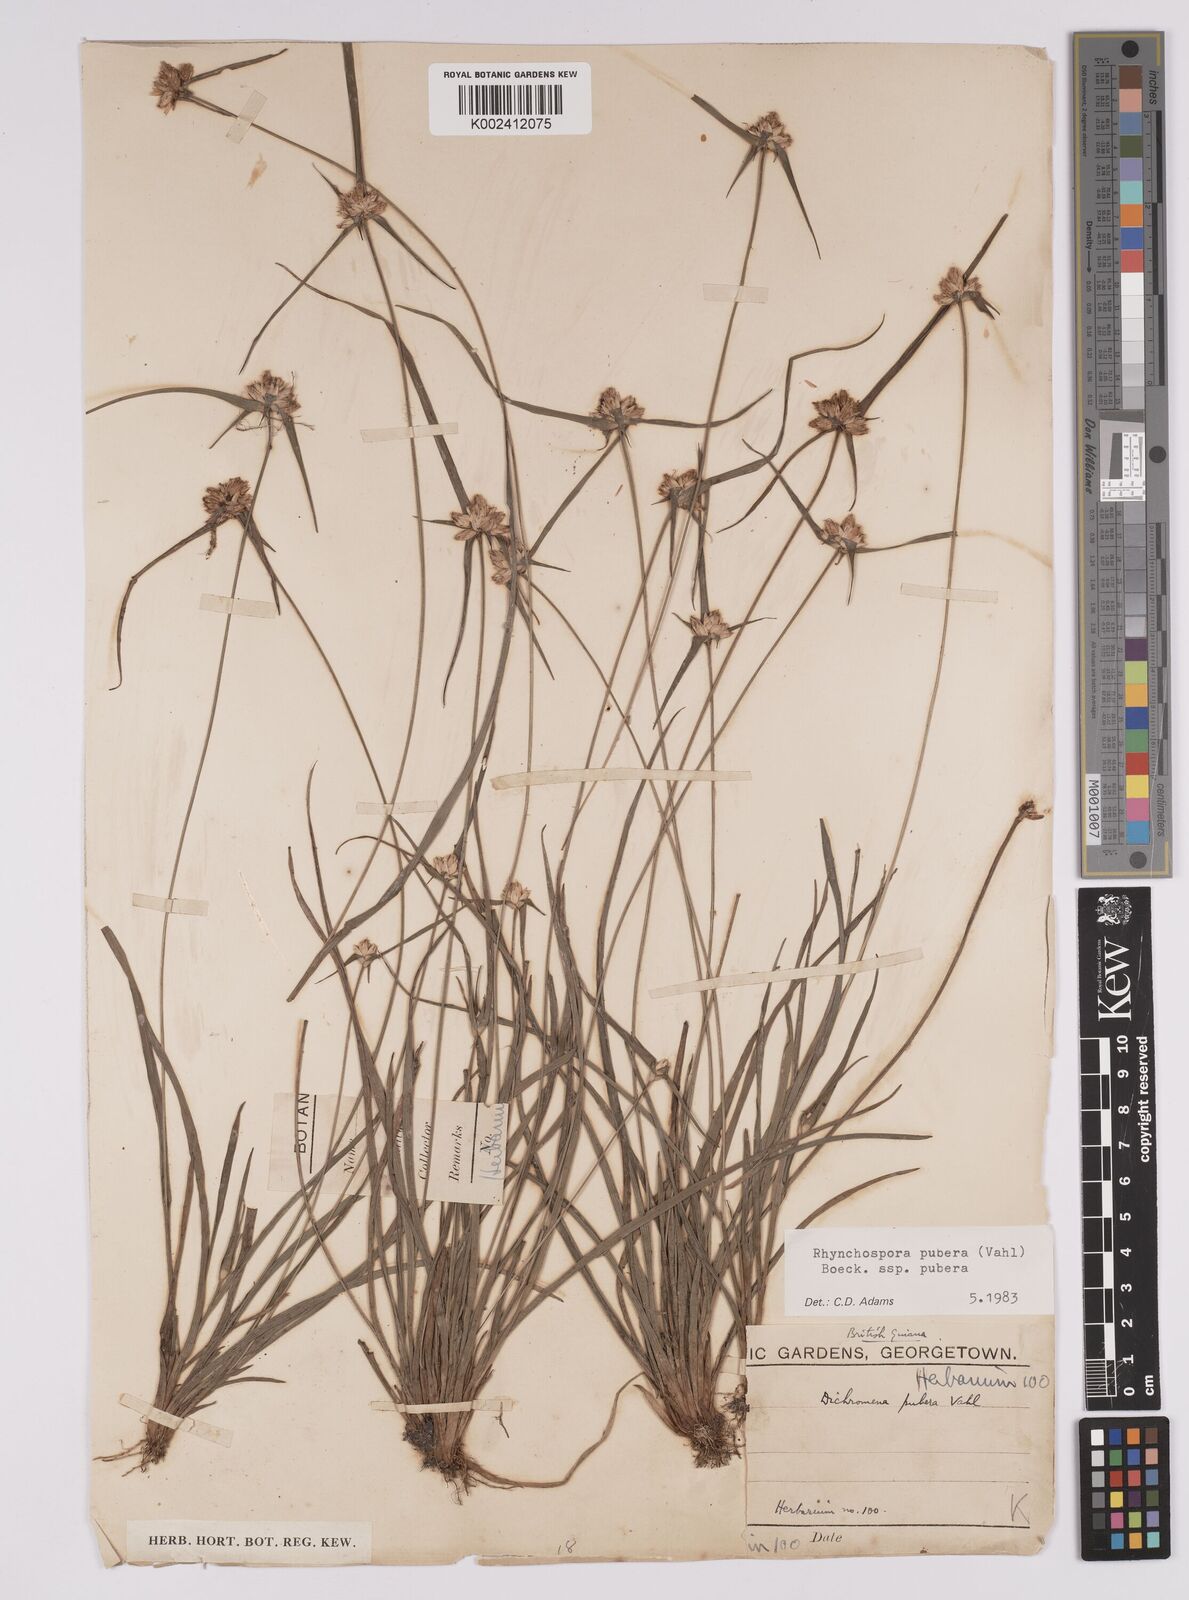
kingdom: Plantae
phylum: Tracheophyta
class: Liliopsida
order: Poales
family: Cyperaceae
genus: Rhynchospora
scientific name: Rhynchospora pubera
